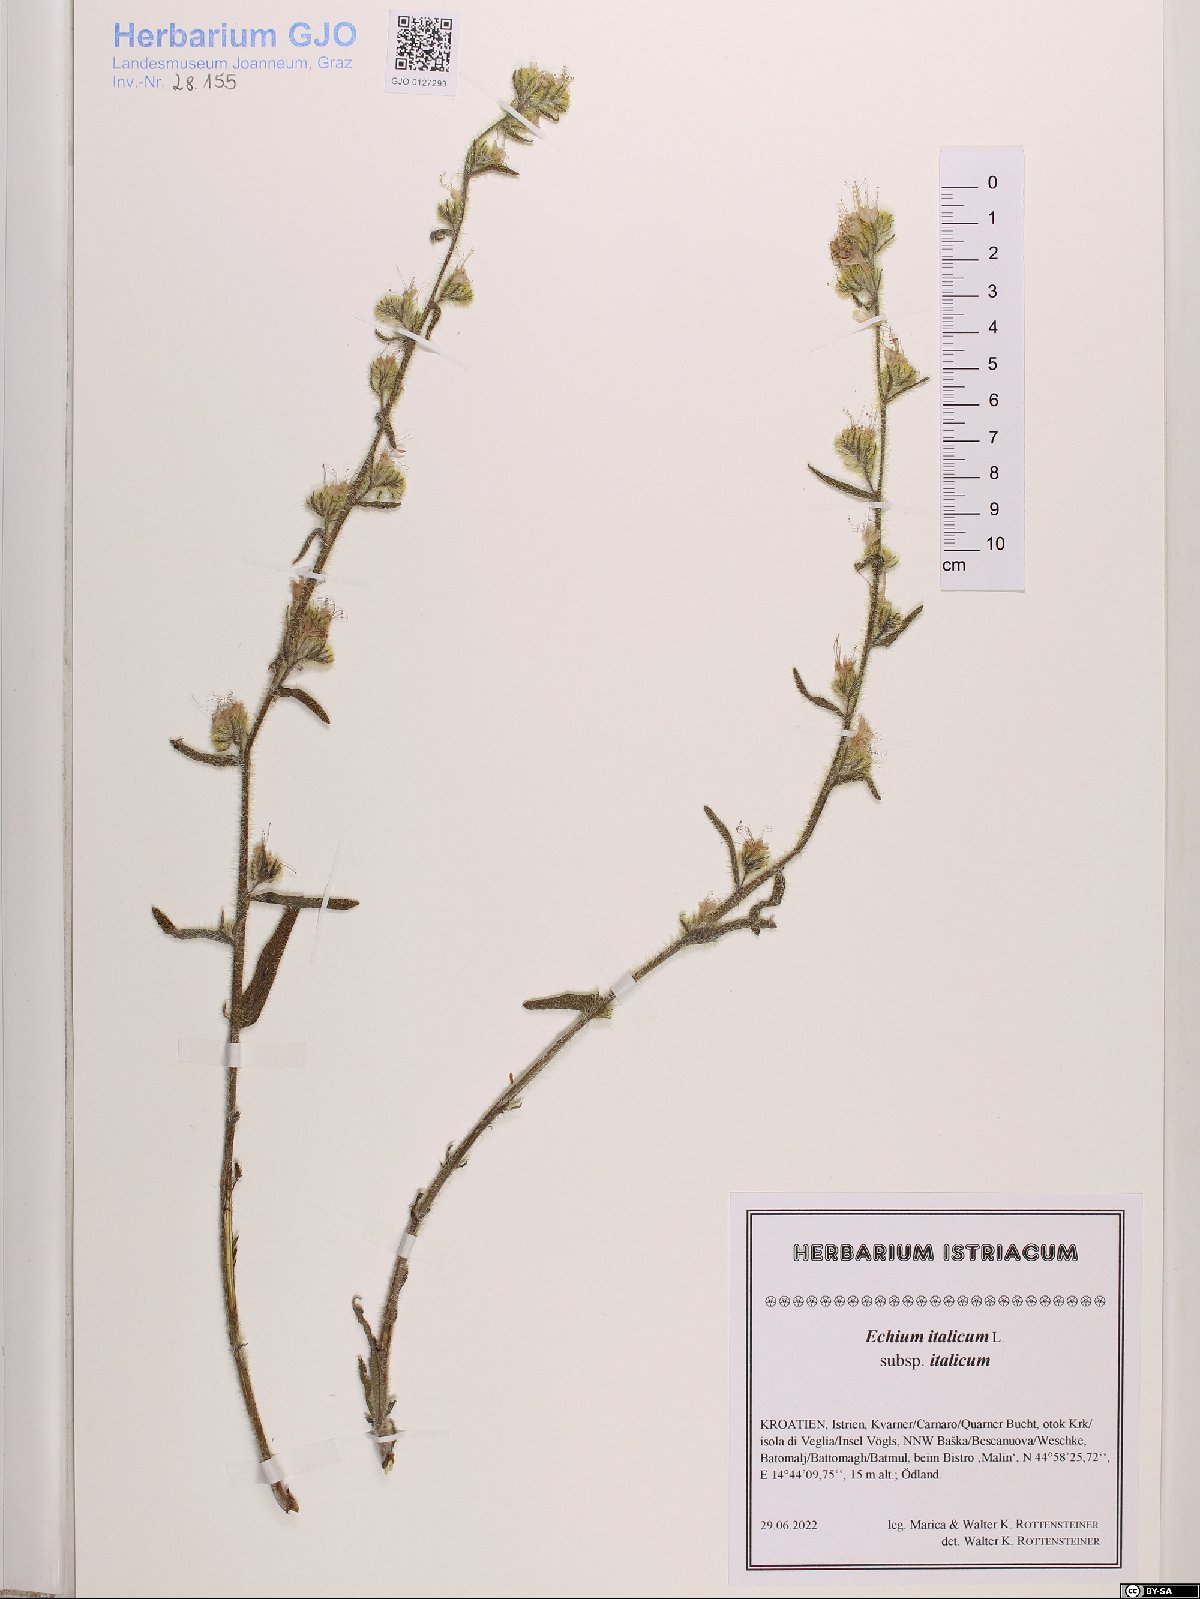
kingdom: Plantae
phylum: Tracheophyta
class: Magnoliopsida
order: Boraginales
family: Boraginaceae
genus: Echium
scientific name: Echium italicum
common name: Italian viper's bugloss
